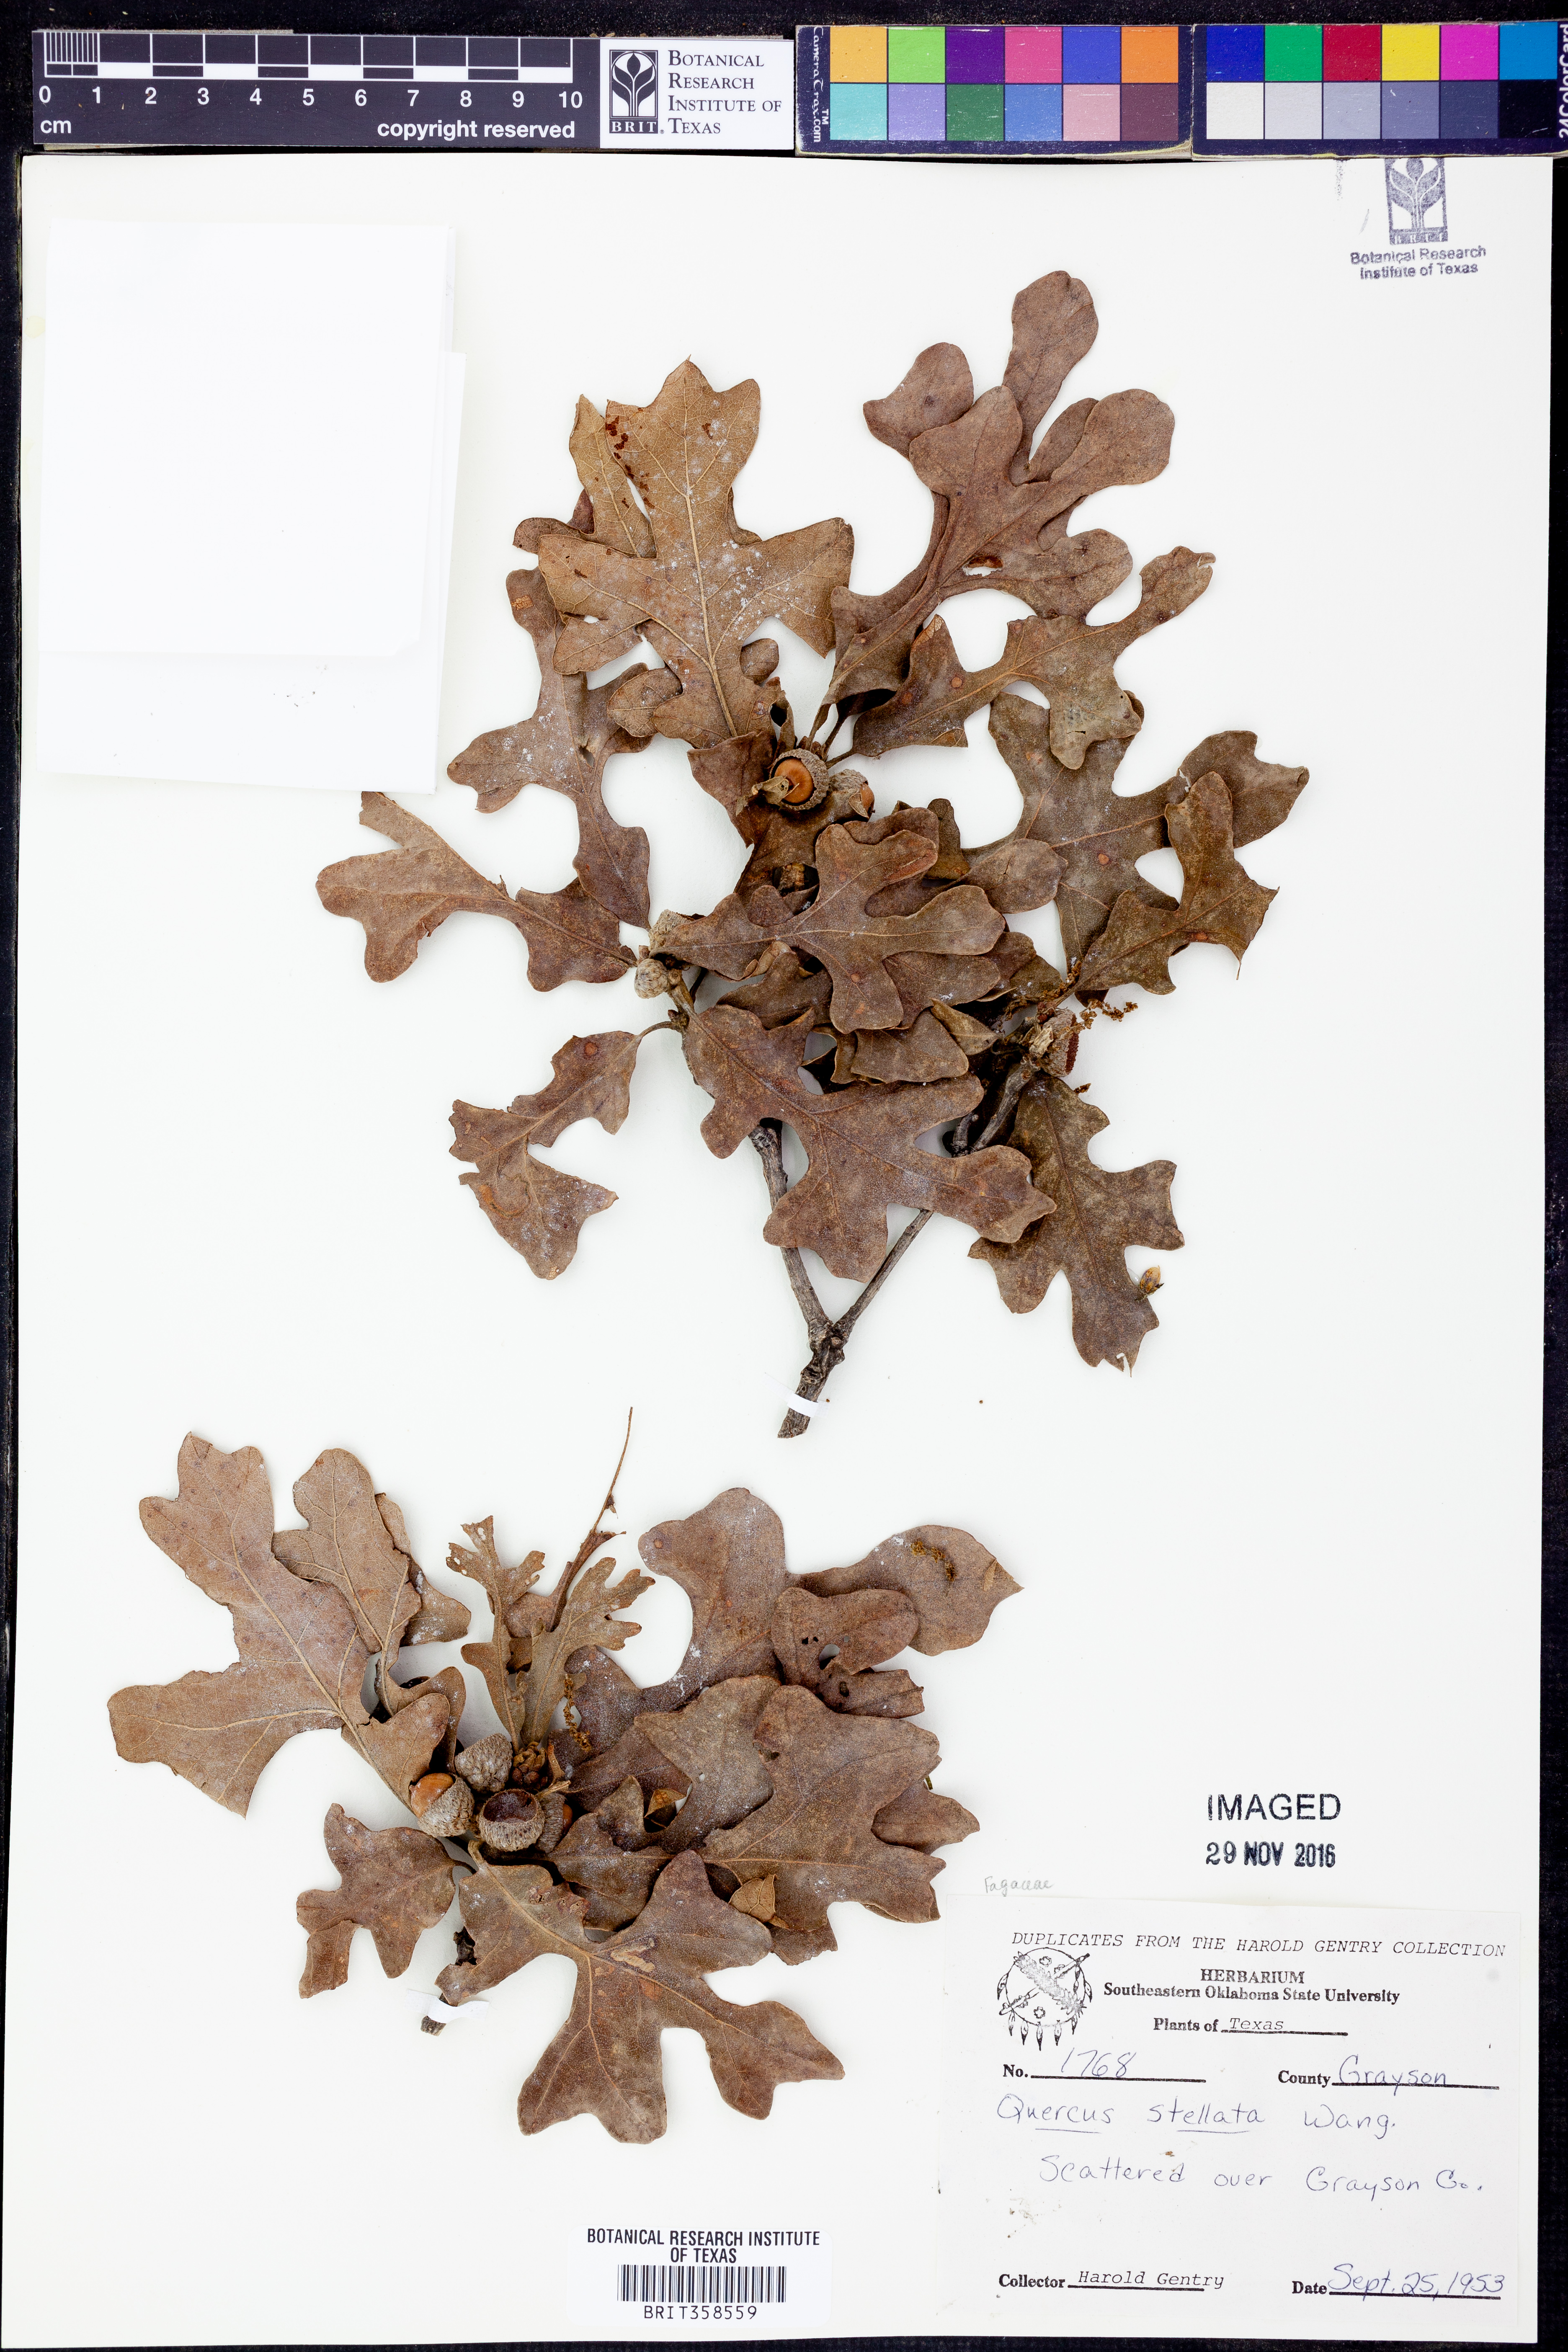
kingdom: Plantae
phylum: Tracheophyta
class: Magnoliopsida
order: Fagales
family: Fagaceae
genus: Quercus
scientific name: Quercus stellata
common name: Post oak
